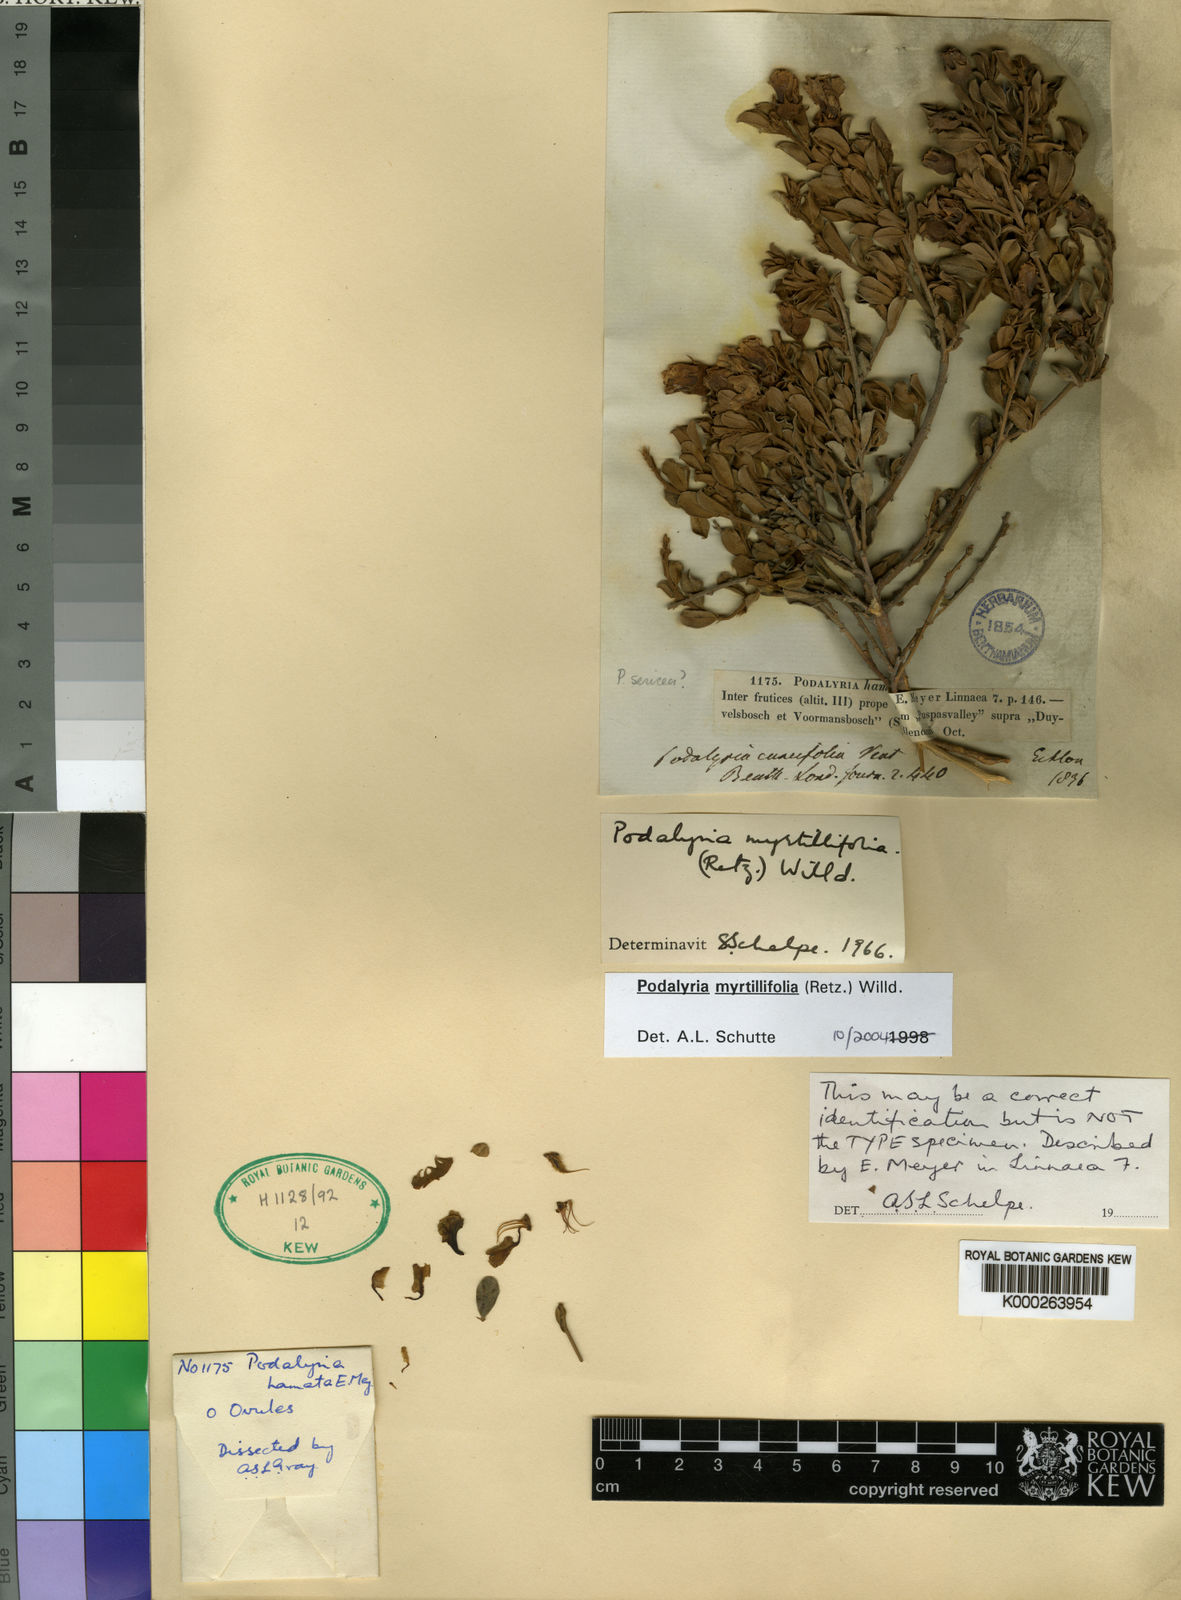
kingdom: Plantae
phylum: Tracheophyta
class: Magnoliopsida
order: Fabales
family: Fabaceae
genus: Podalyria
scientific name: Podalyria myrtillifolia
